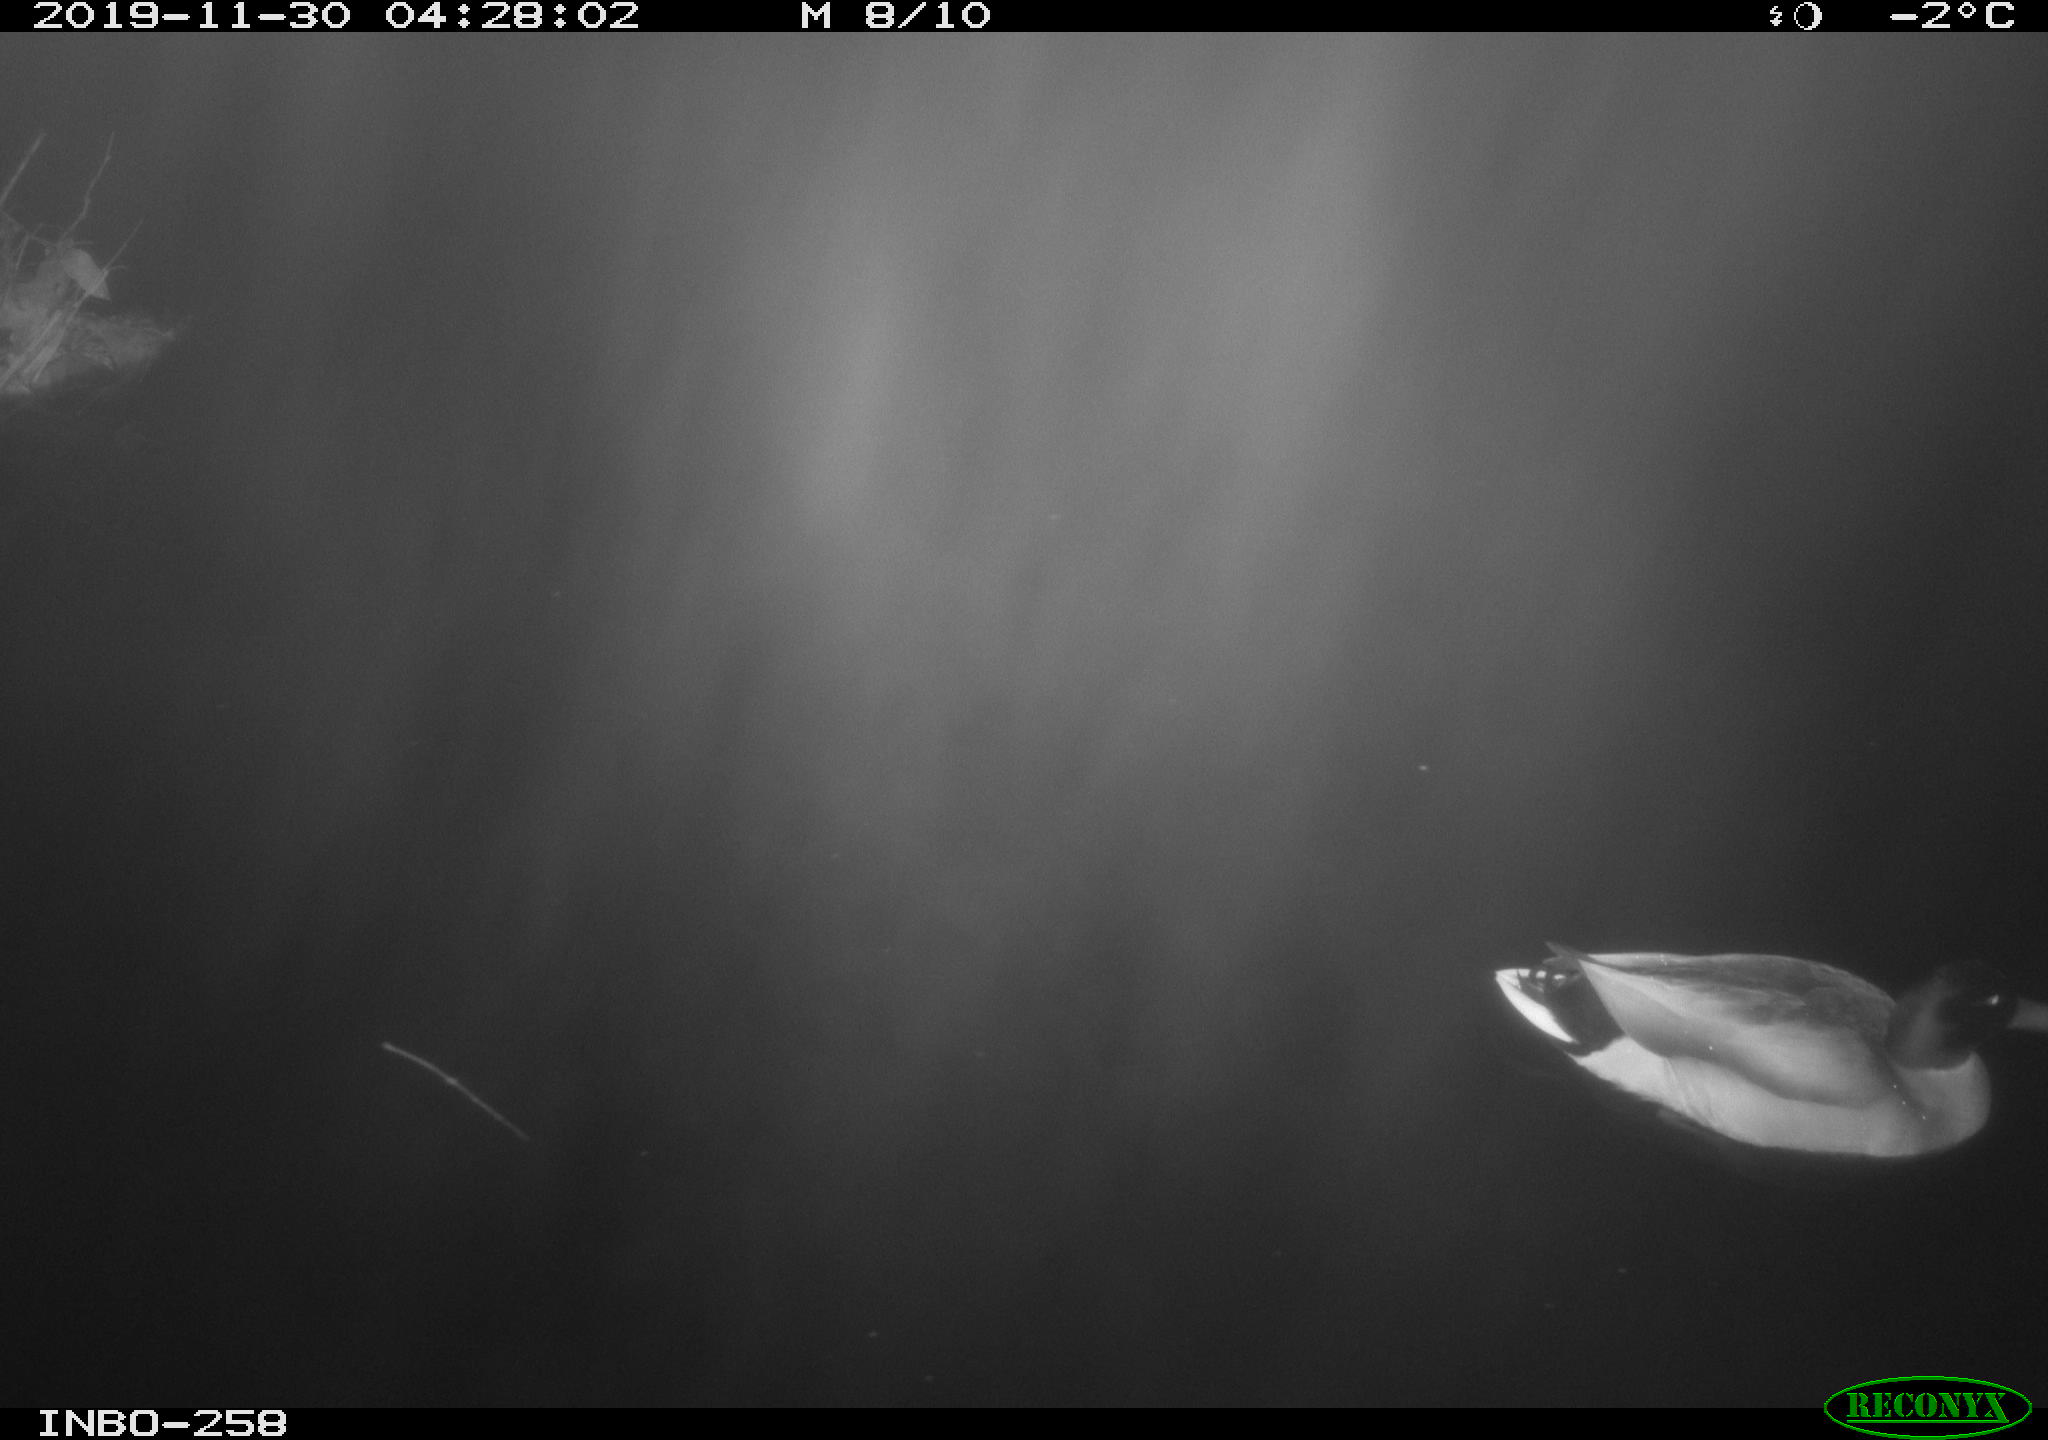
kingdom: Animalia
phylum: Chordata
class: Aves
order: Anseriformes
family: Anatidae
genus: Anas
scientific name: Anas platyrhynchos
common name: Mallard
